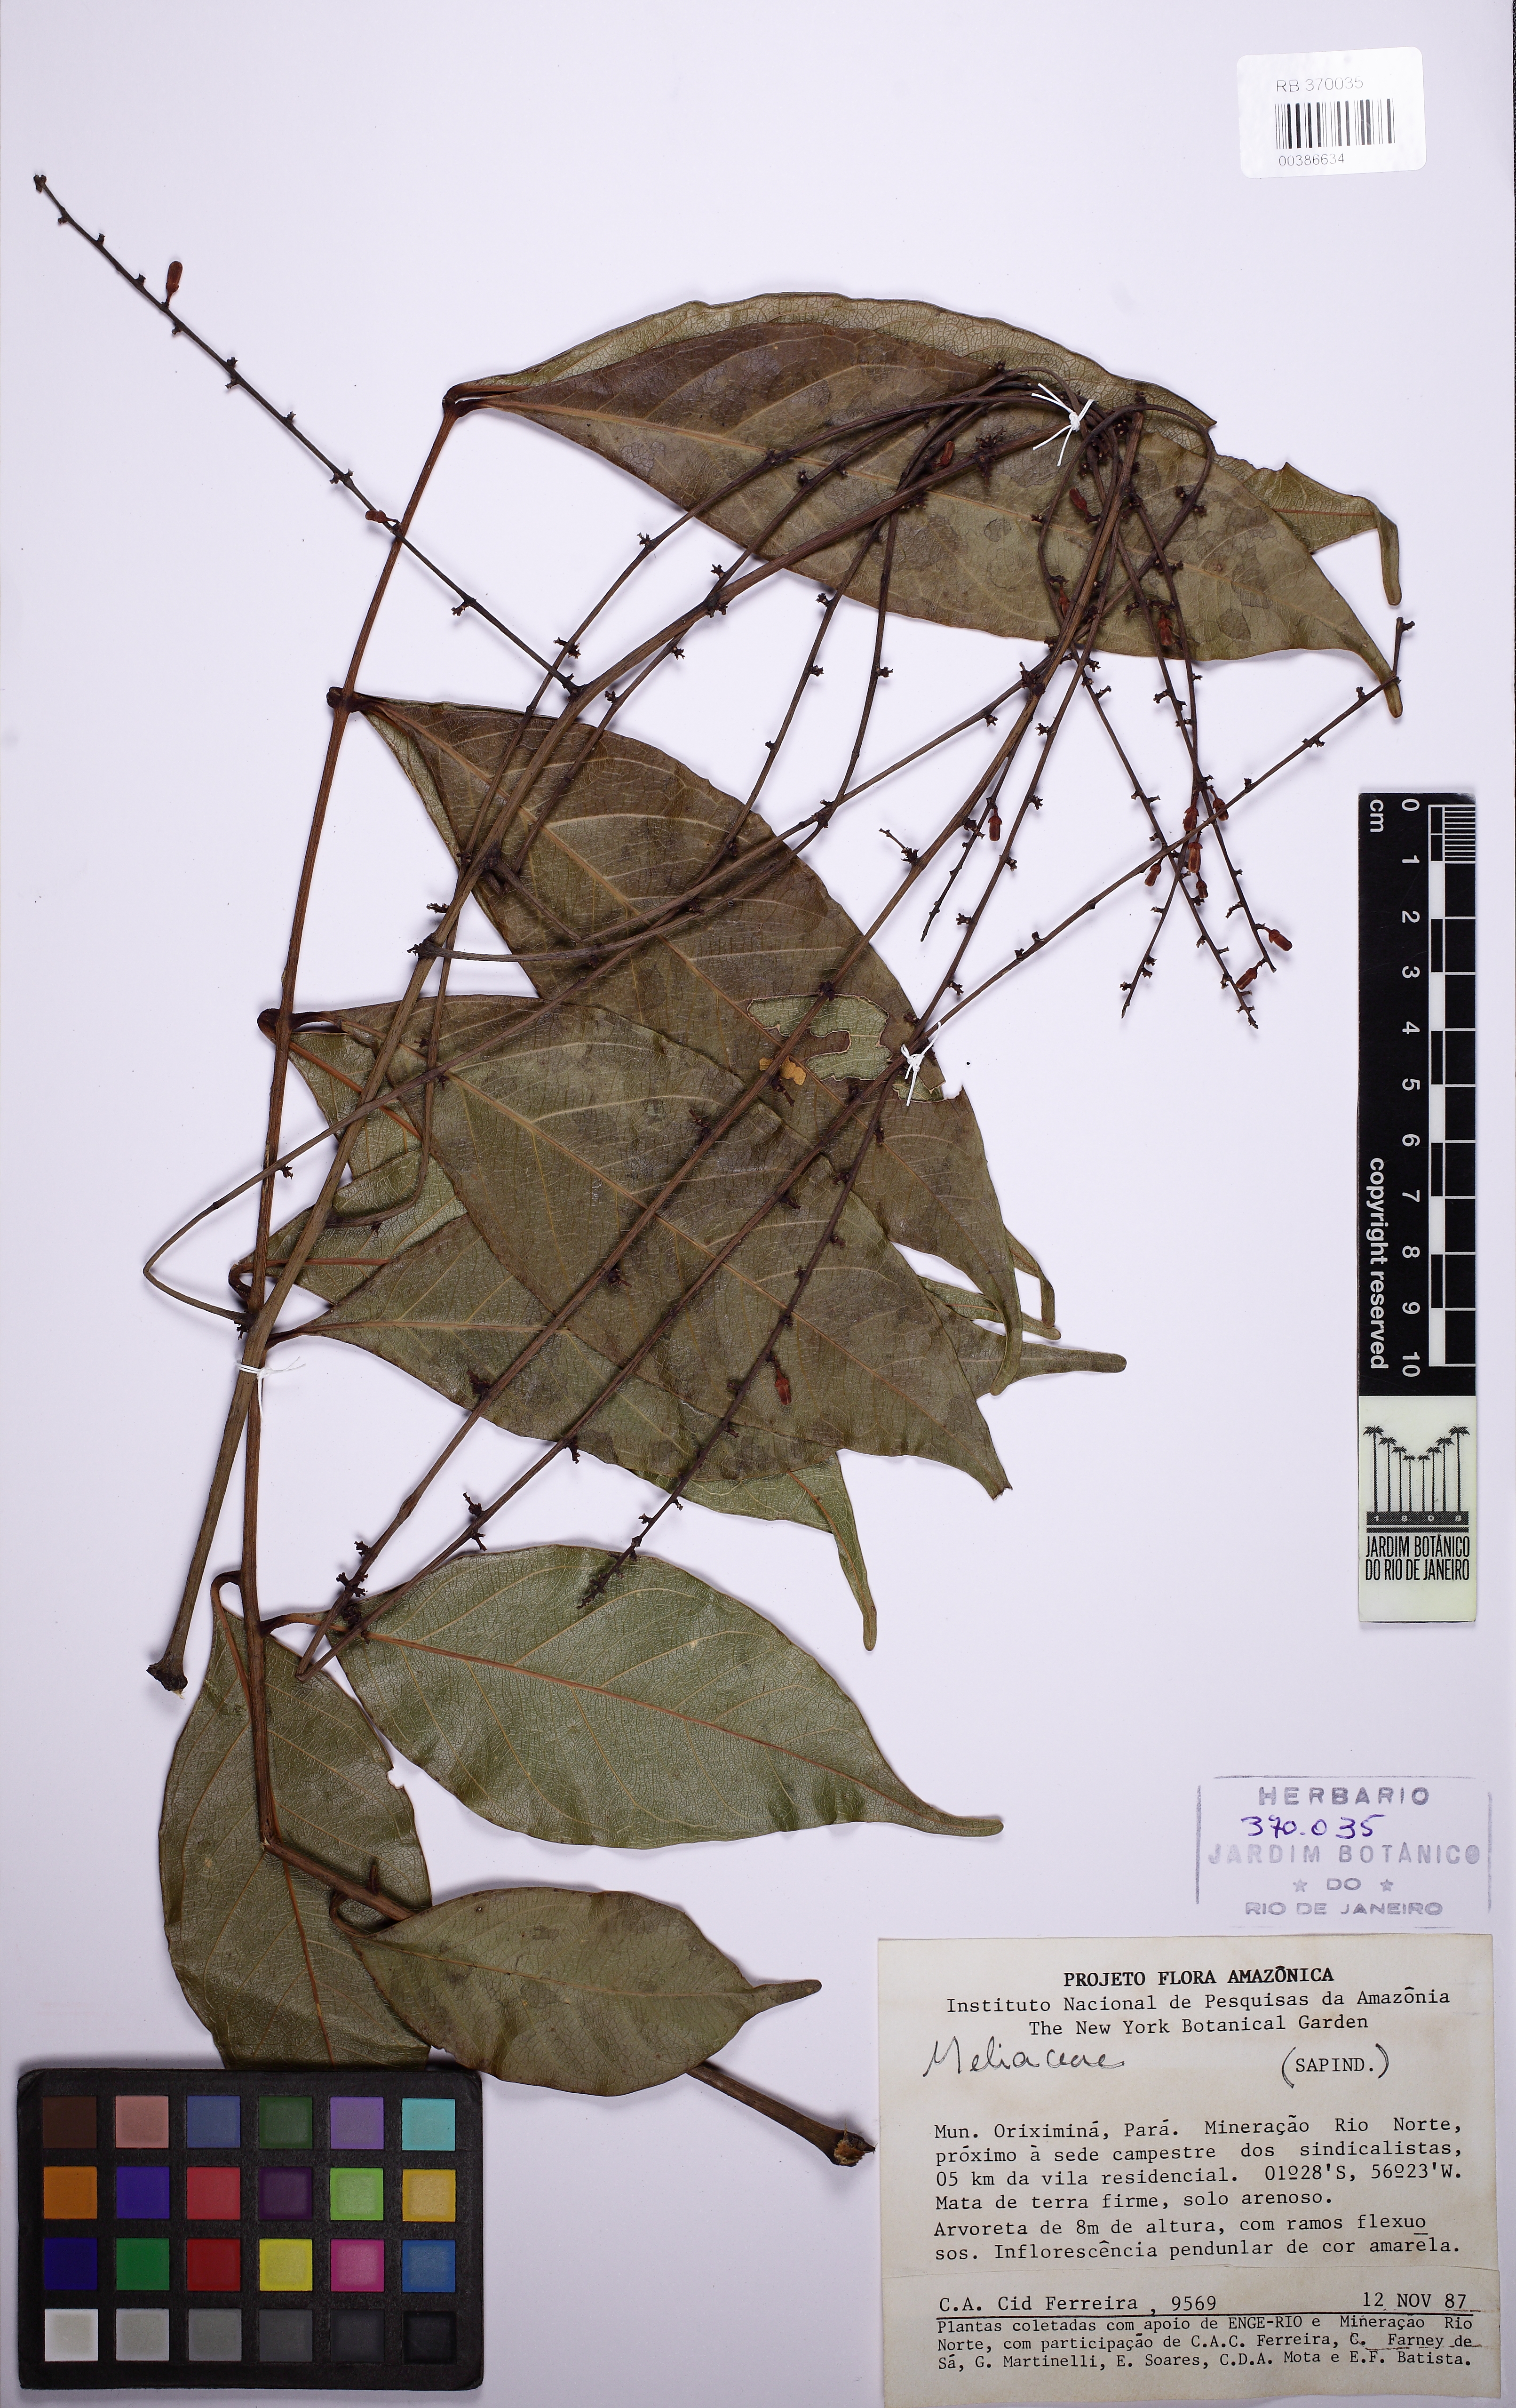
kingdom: Plantae
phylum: Tracheophyta
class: Magnoliopsida
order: Sapindales
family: Meliaceae
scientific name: Meliaceae
